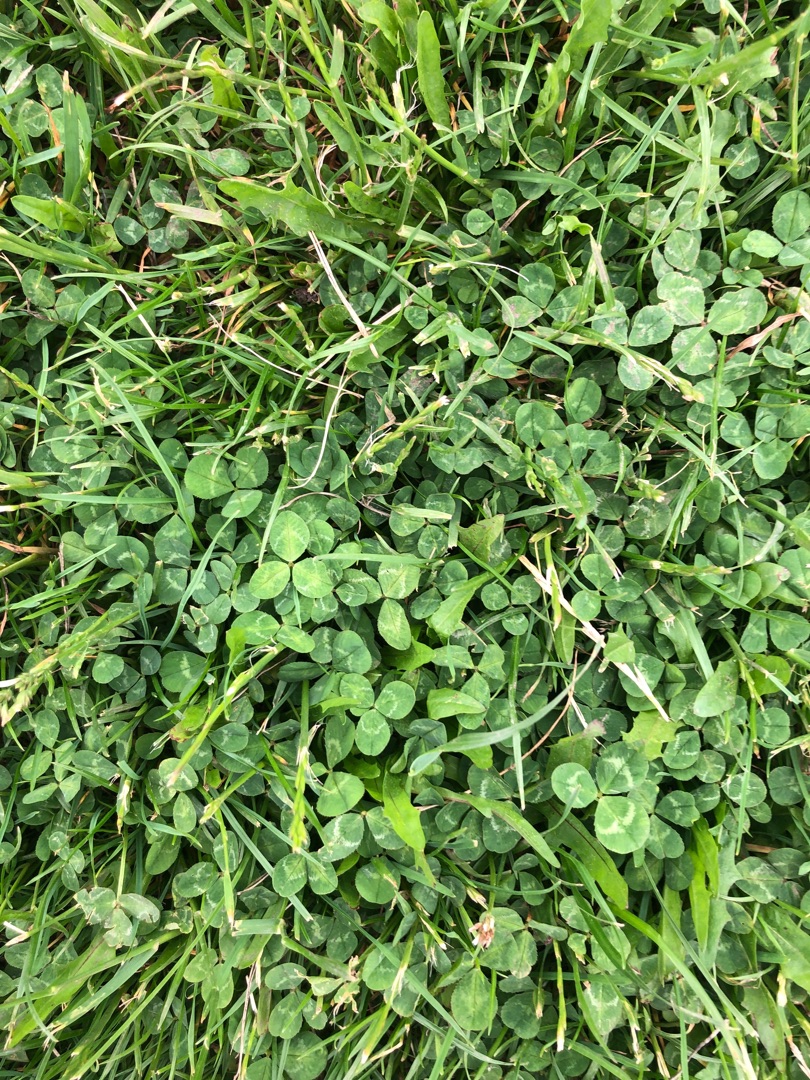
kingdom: Plantae
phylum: Tracheophyta
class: Magnoliopsida
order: Fabales
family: Fabaceae
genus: Trifolium
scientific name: Trifolium repens
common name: Hvid-kløver
